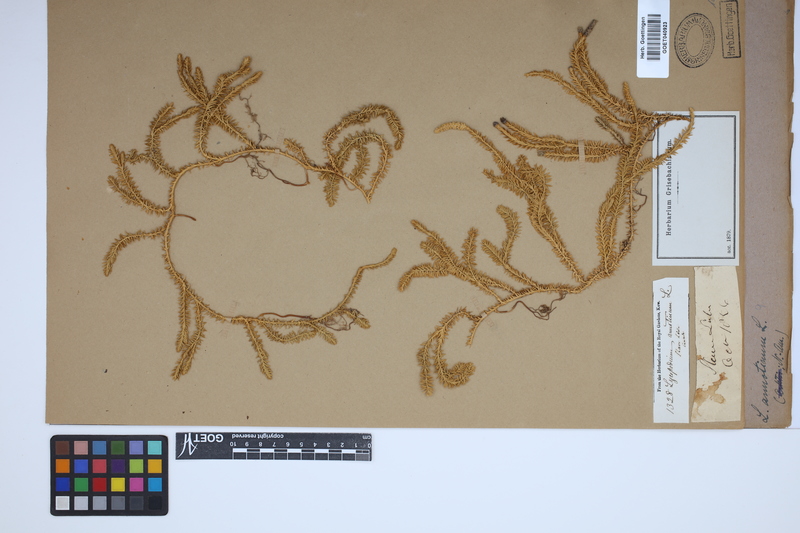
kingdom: Plantae
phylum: Tracheophyta
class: Lycopodiopsida
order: Lycopodiales
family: Lycopodiaceae
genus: Spinulum
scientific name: Spinulum annotinum
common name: Interrupted club-moss
